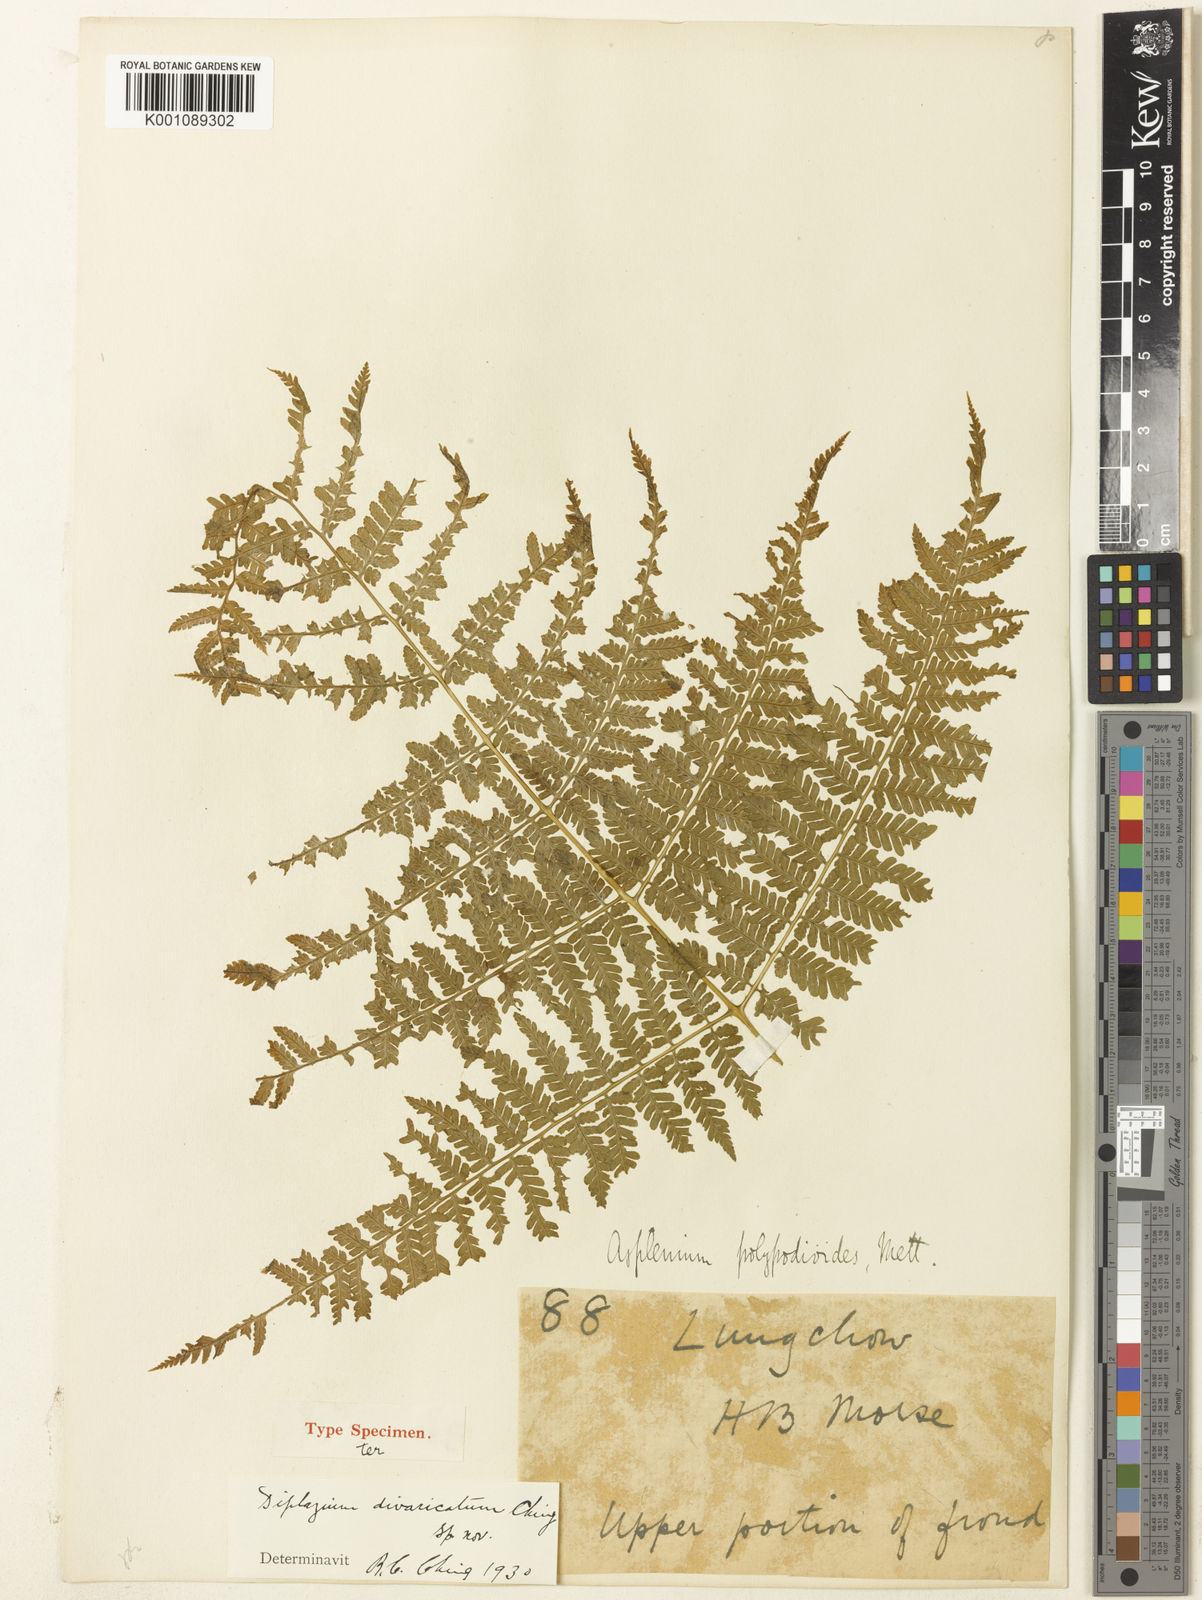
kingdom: Plantae
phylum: Tracheophyta
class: Polypodiopsida
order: Polypodiales
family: Athyriaceae
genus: Diplazium
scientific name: Diplazium spectabile
